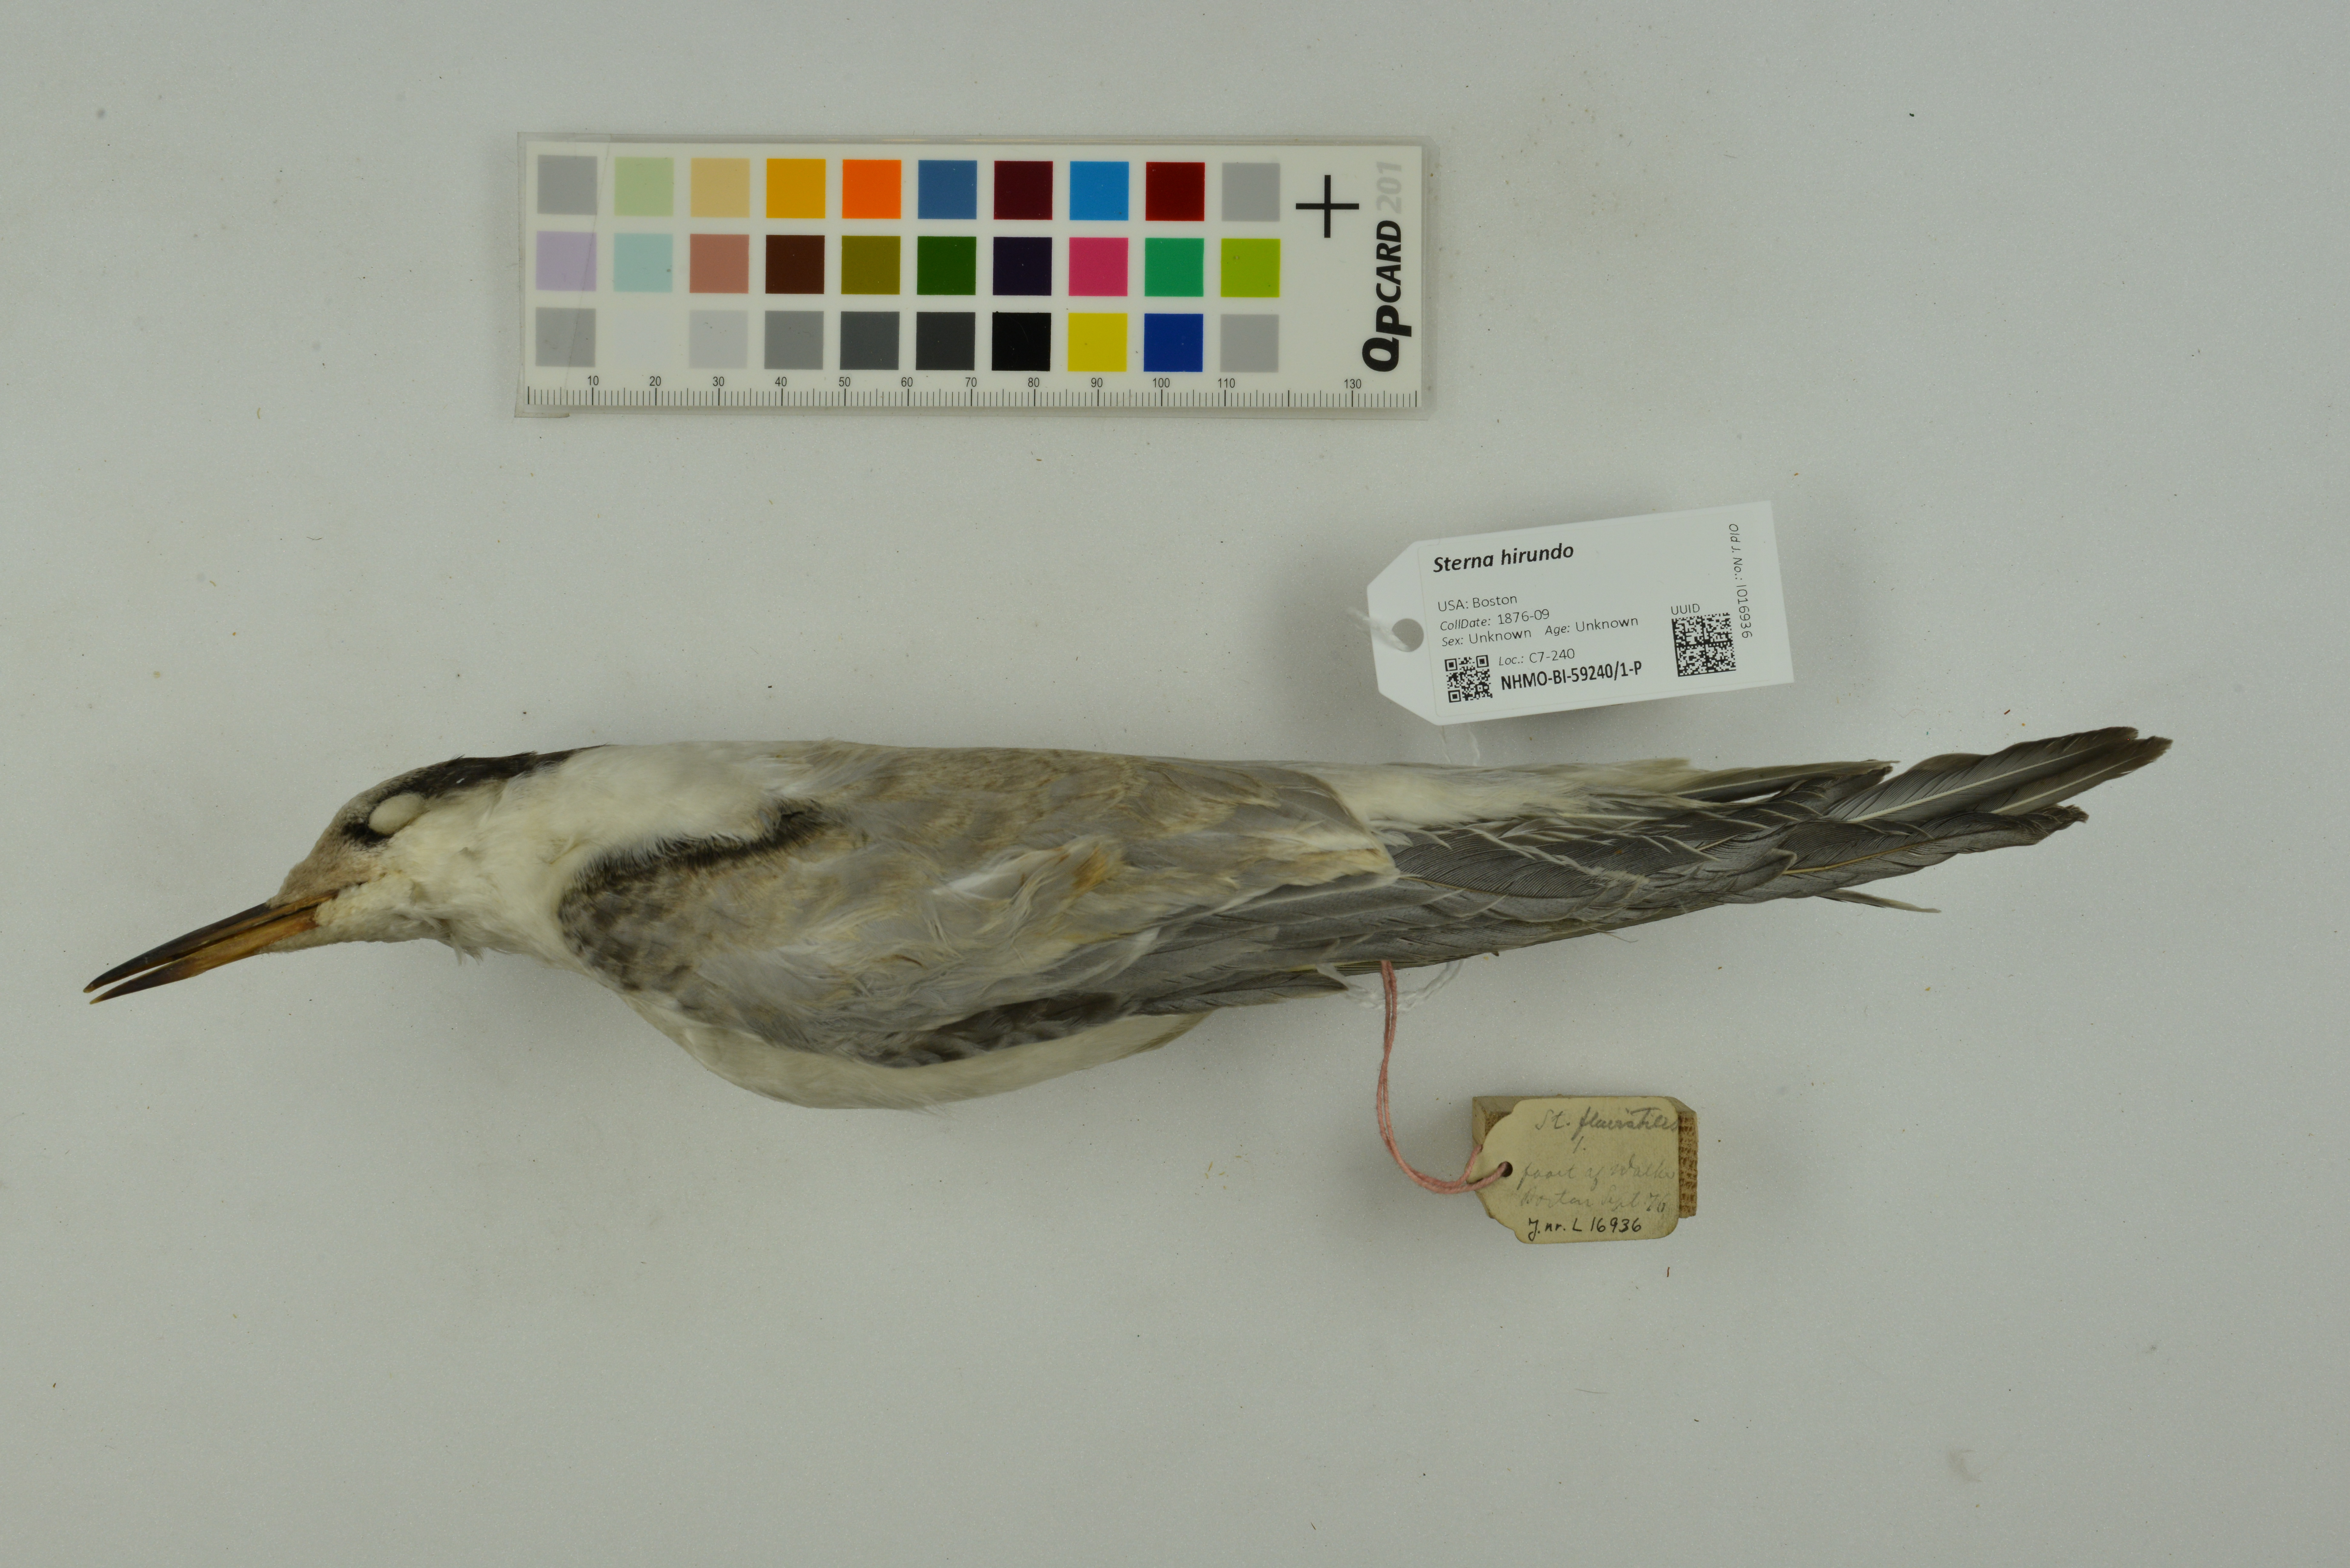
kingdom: Animalia
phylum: Chordata
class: Aves
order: Charadriiformes
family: Laridae
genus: Sterna
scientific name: Sterna hirundo
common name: Common tern
